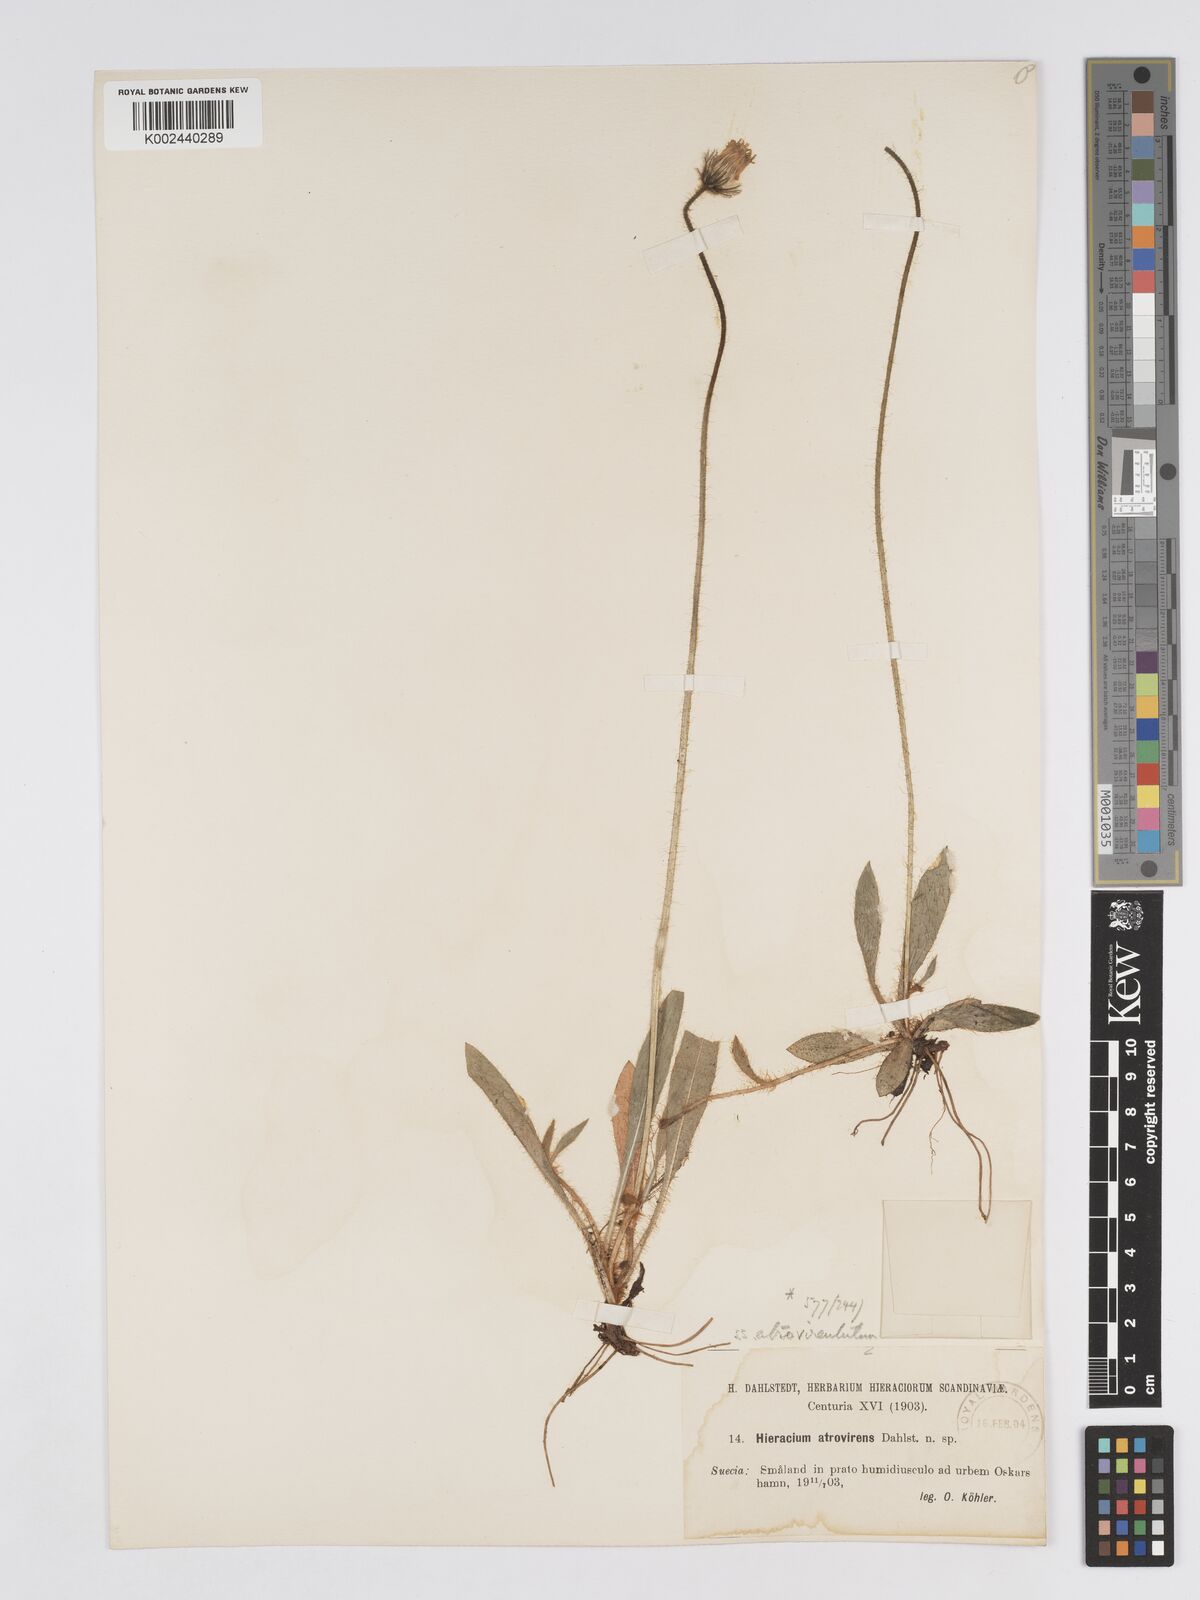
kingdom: Plantae
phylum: Tracheophyta
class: Magnoliopsida
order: Asterales
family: Asteraceae
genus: Pilosella
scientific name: Pilosella officinarum
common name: Mouse-ear hawkweed
